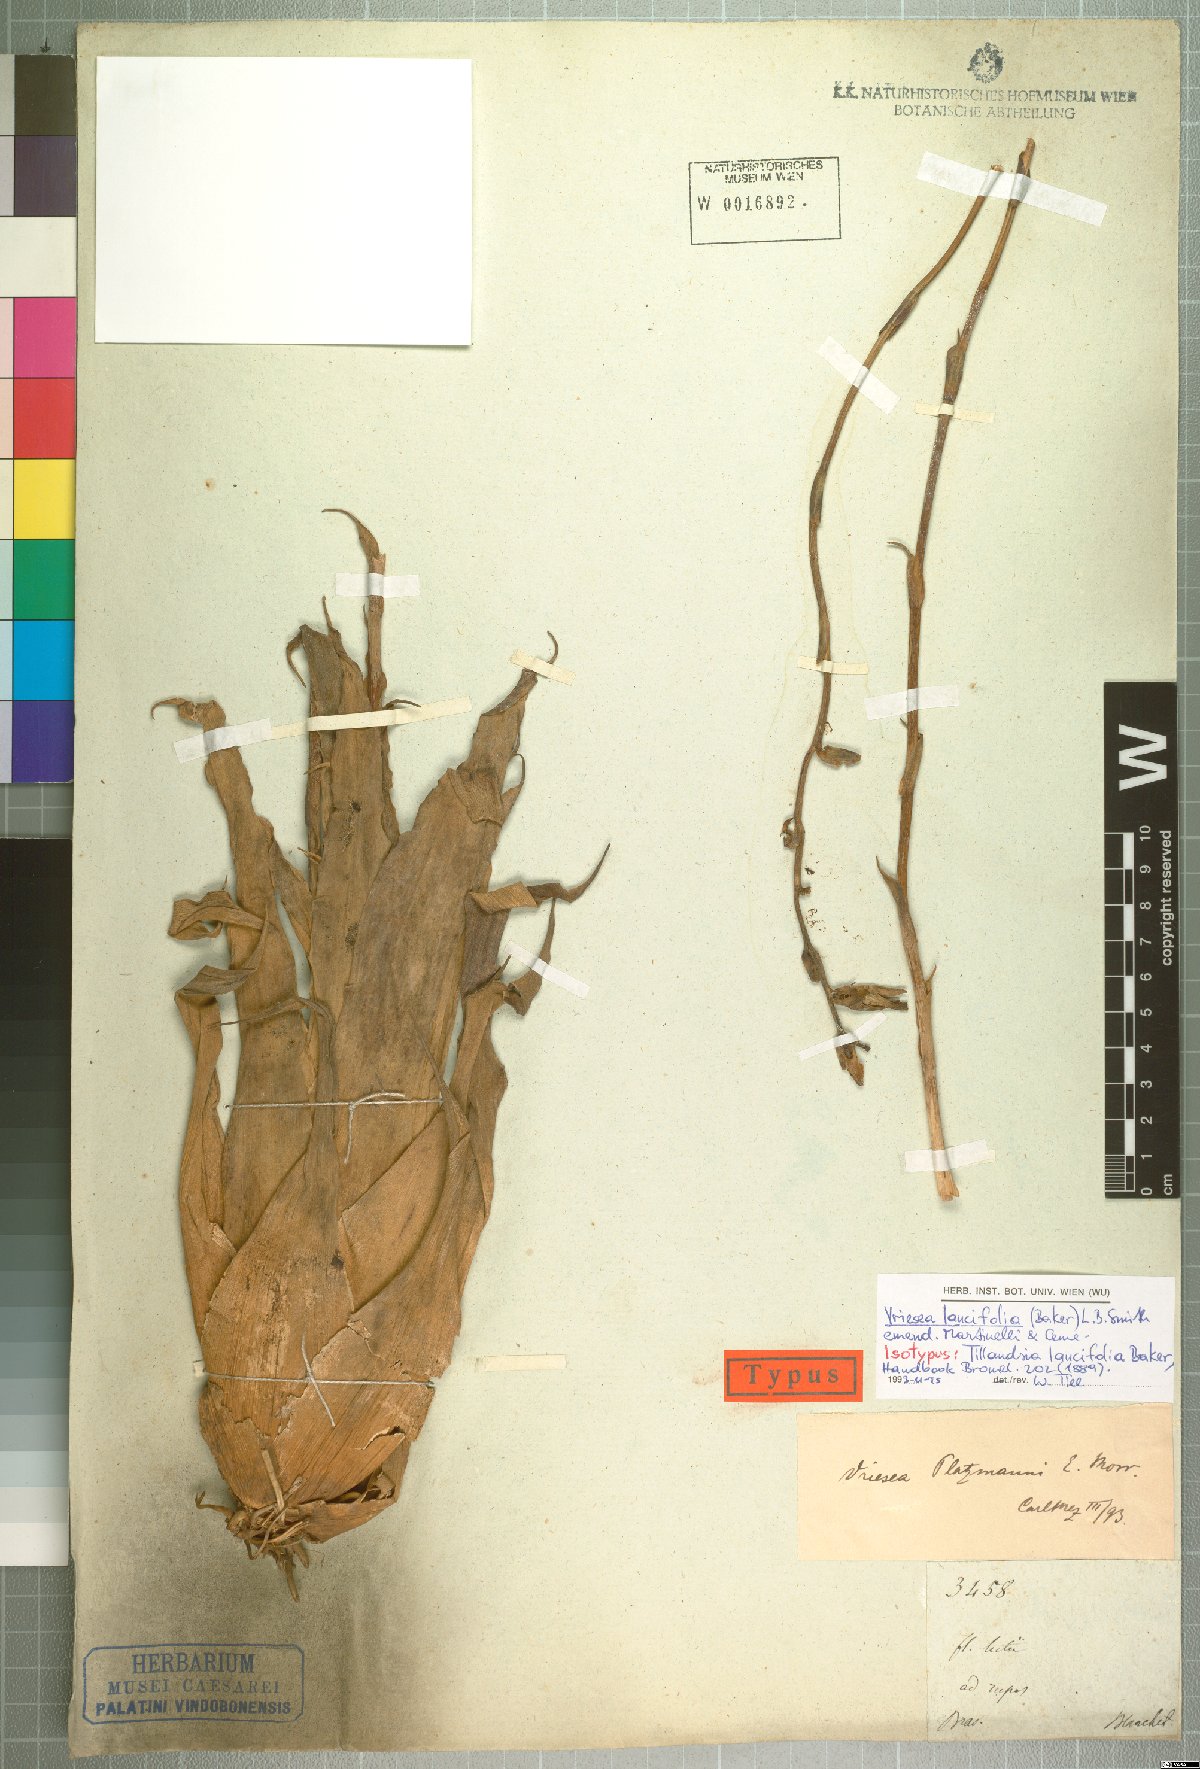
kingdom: Plantae
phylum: Tracheophyta
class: Liliopsida
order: Poales
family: Bromeliaceae
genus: Vriesea
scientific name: Vriesea lancifolia
